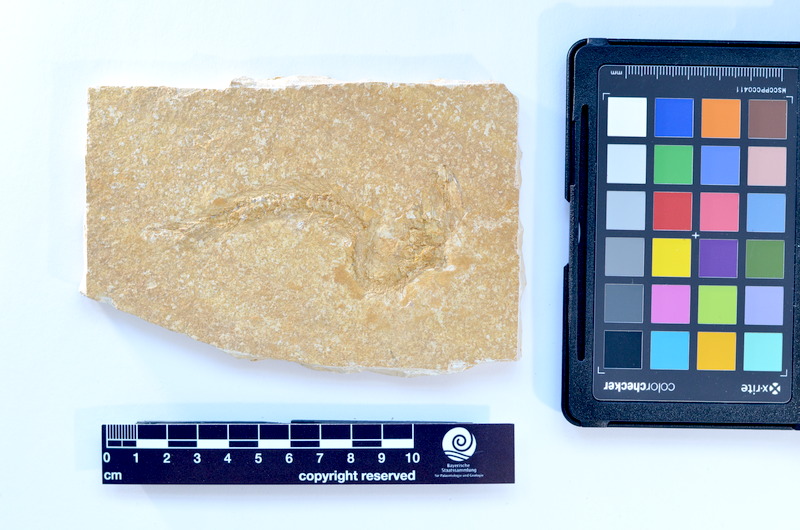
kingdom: Animalia
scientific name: Animalia
